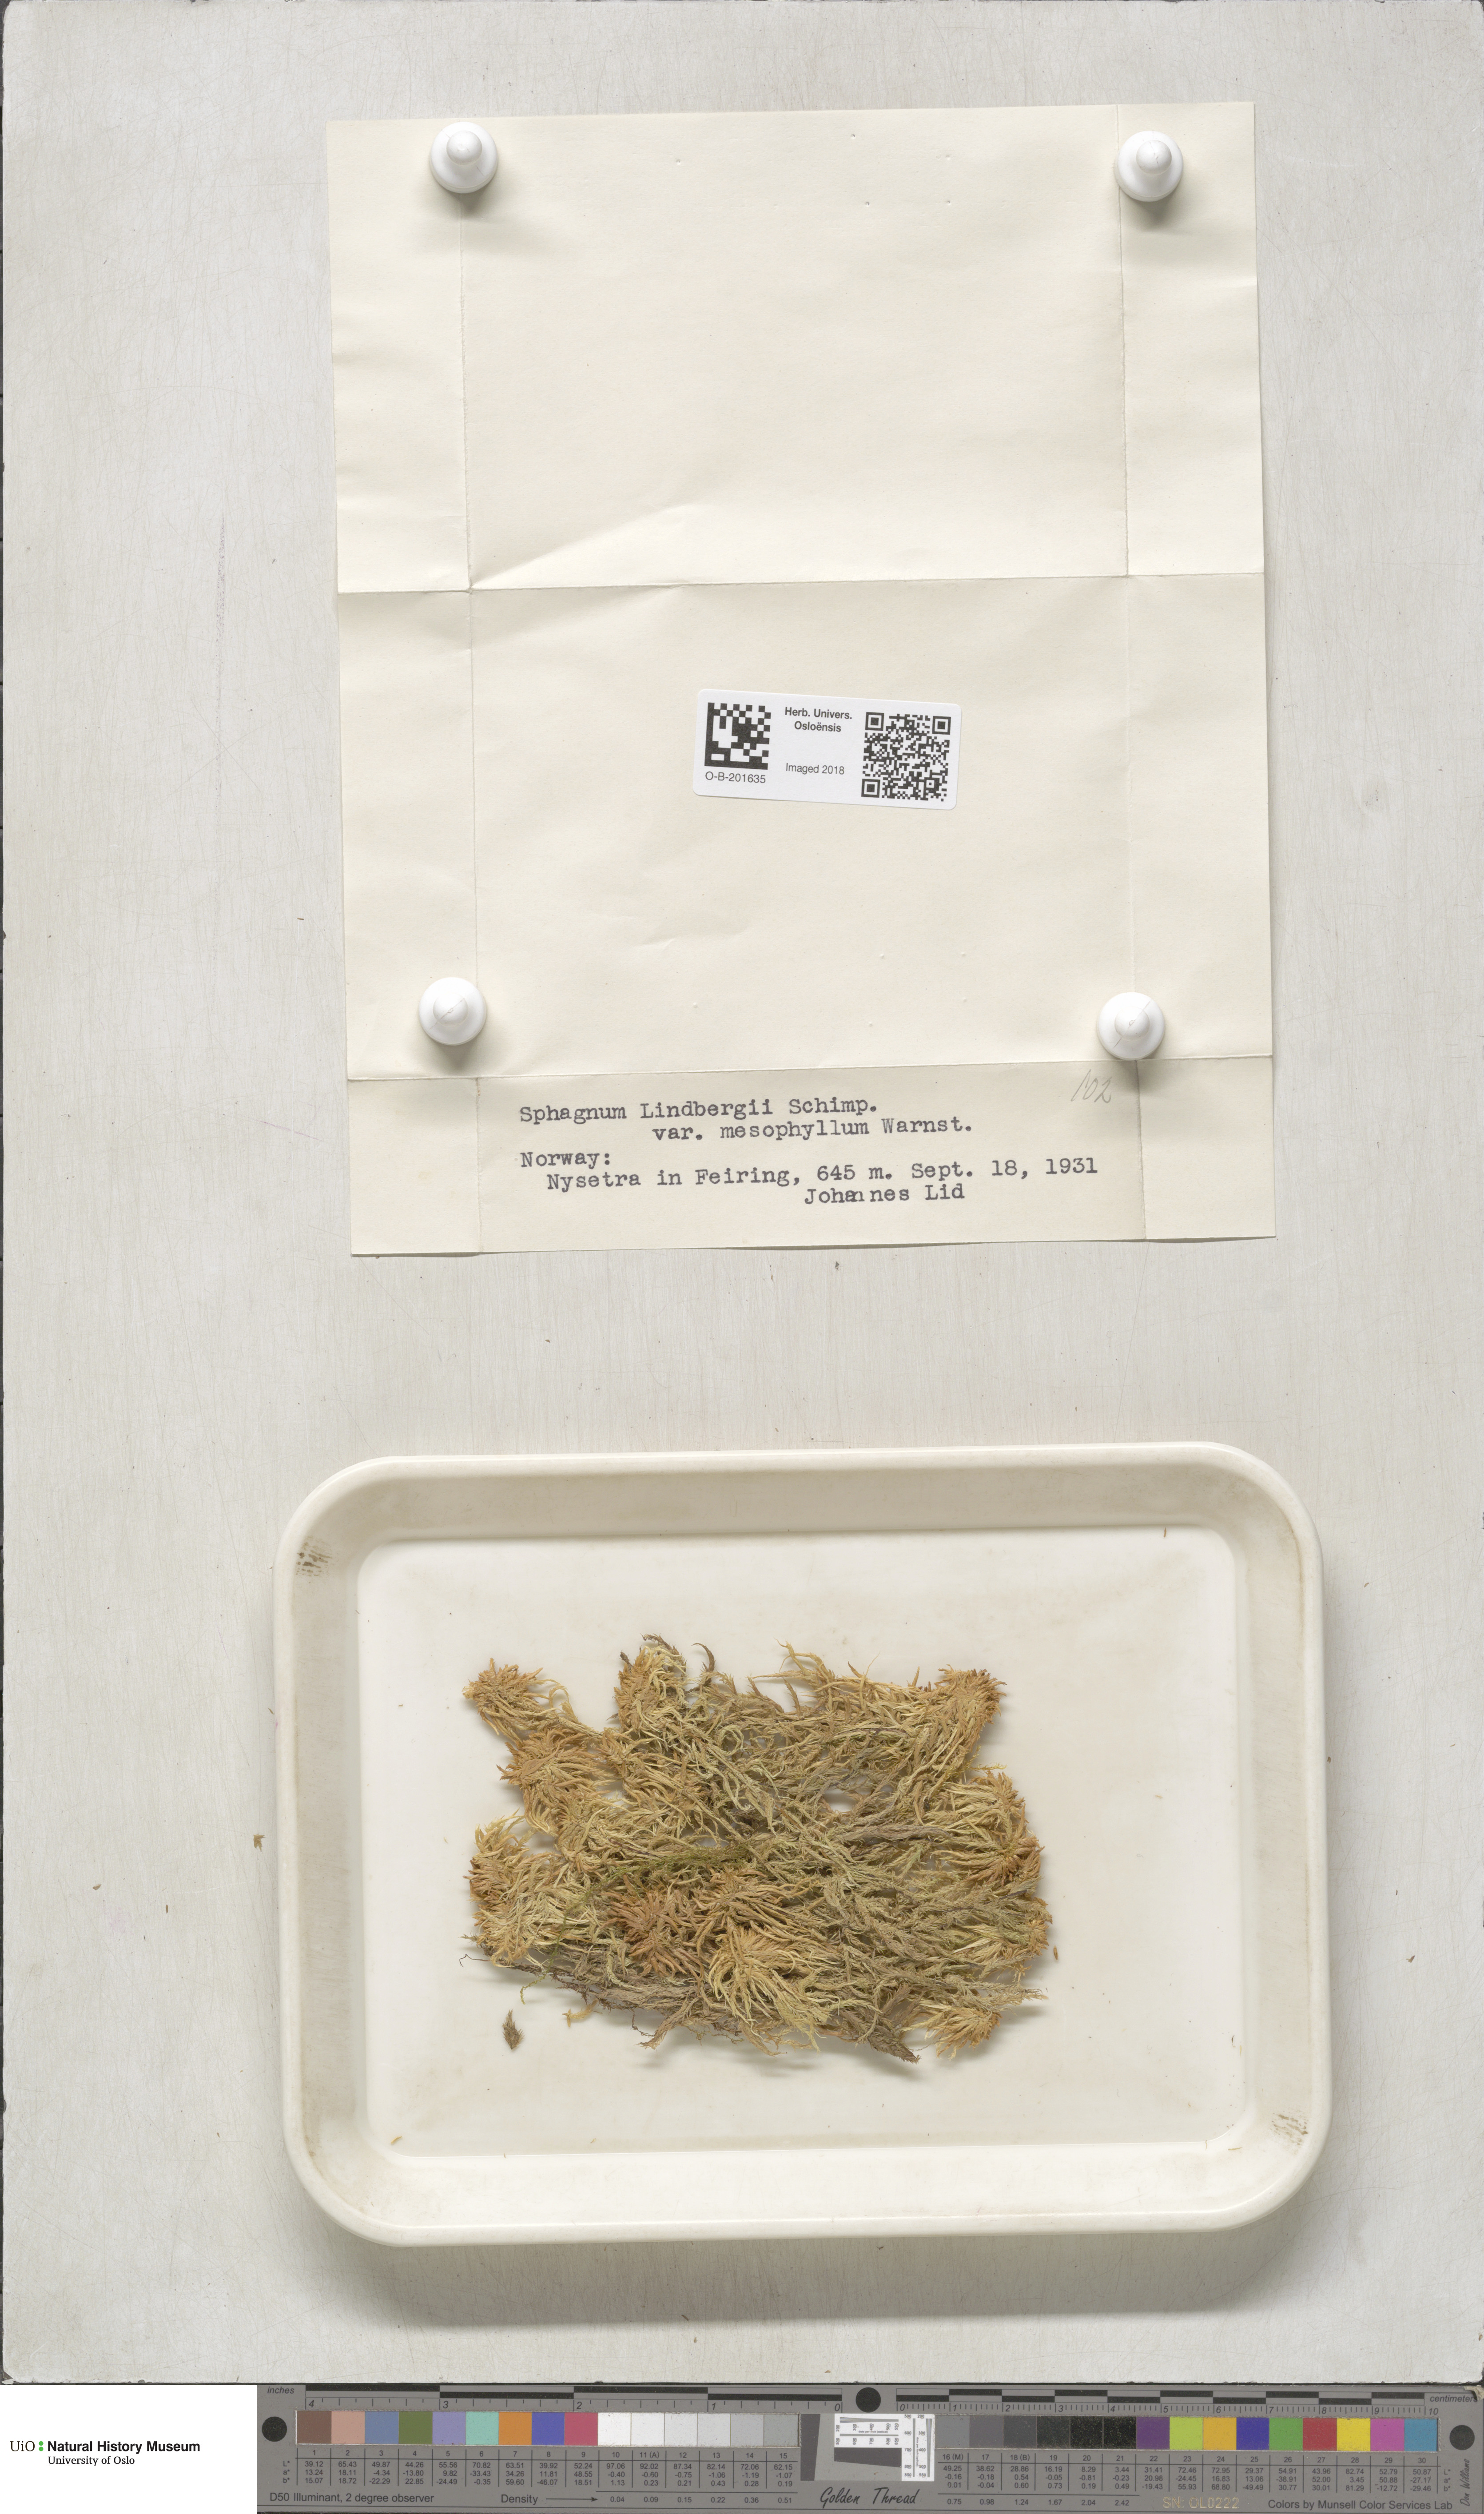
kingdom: Plantae
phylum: Bryophyta
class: Sphagnopsida
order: Sphagnales
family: Sphagnaceae
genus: Sphagnum
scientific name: Sphagnum lindbergii
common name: Lindberg's peat moss
